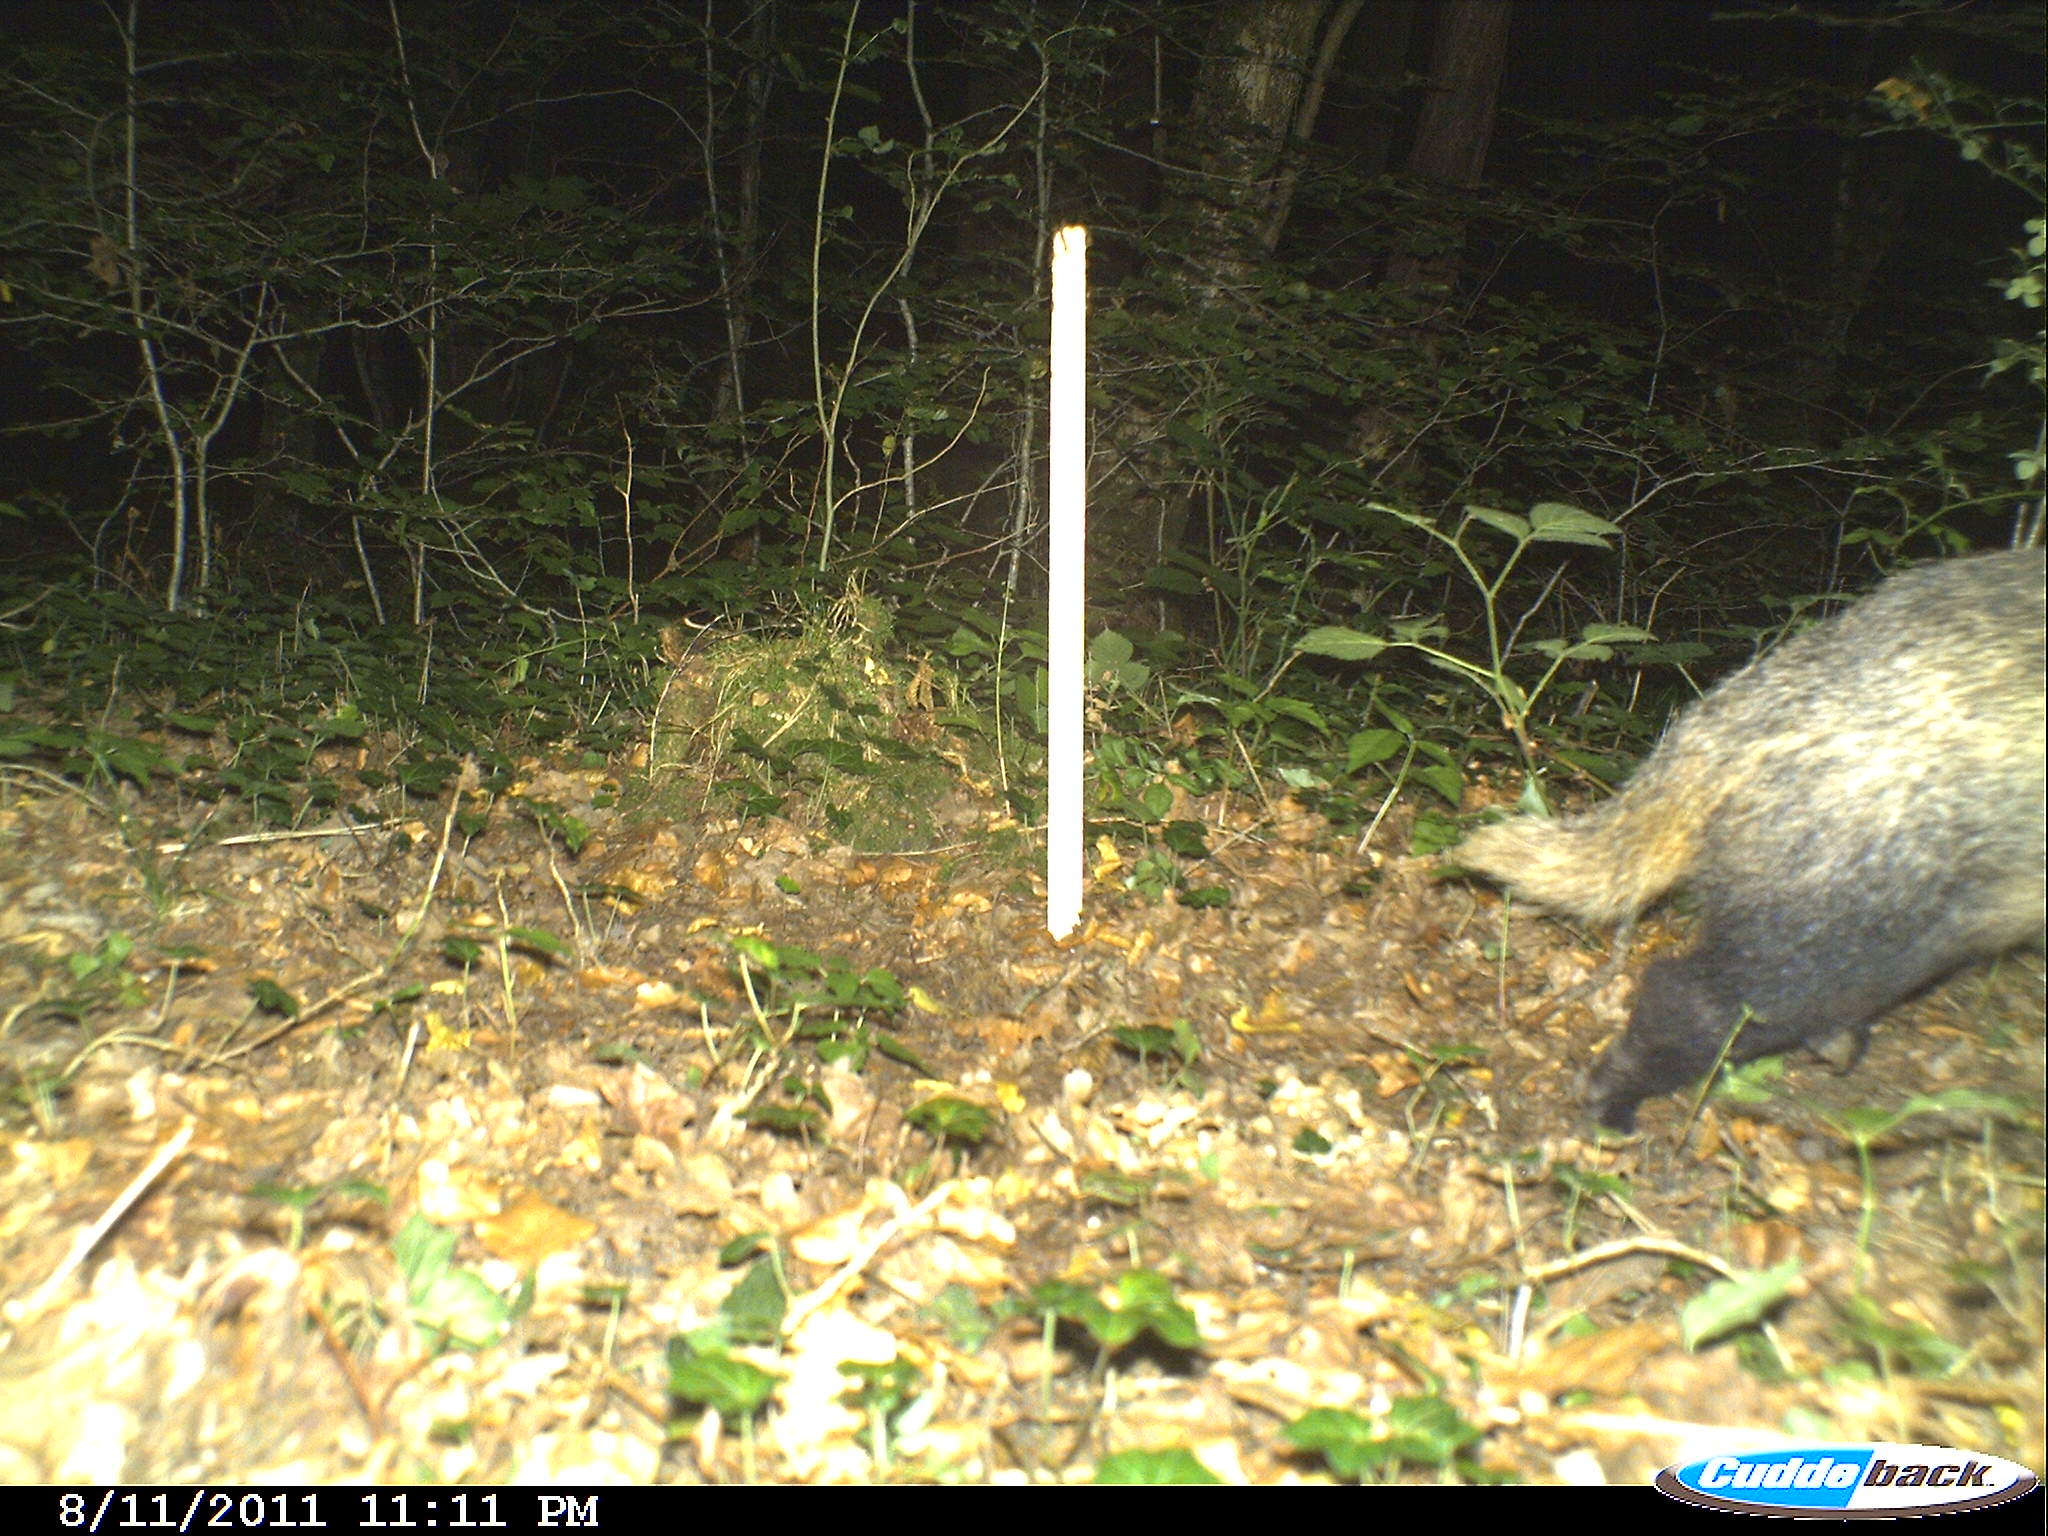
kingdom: Animalia
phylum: Chordata
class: Mammalia
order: Carnivora
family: Mustelidae
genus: Meles
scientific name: Meles meles
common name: Eurasian badger
